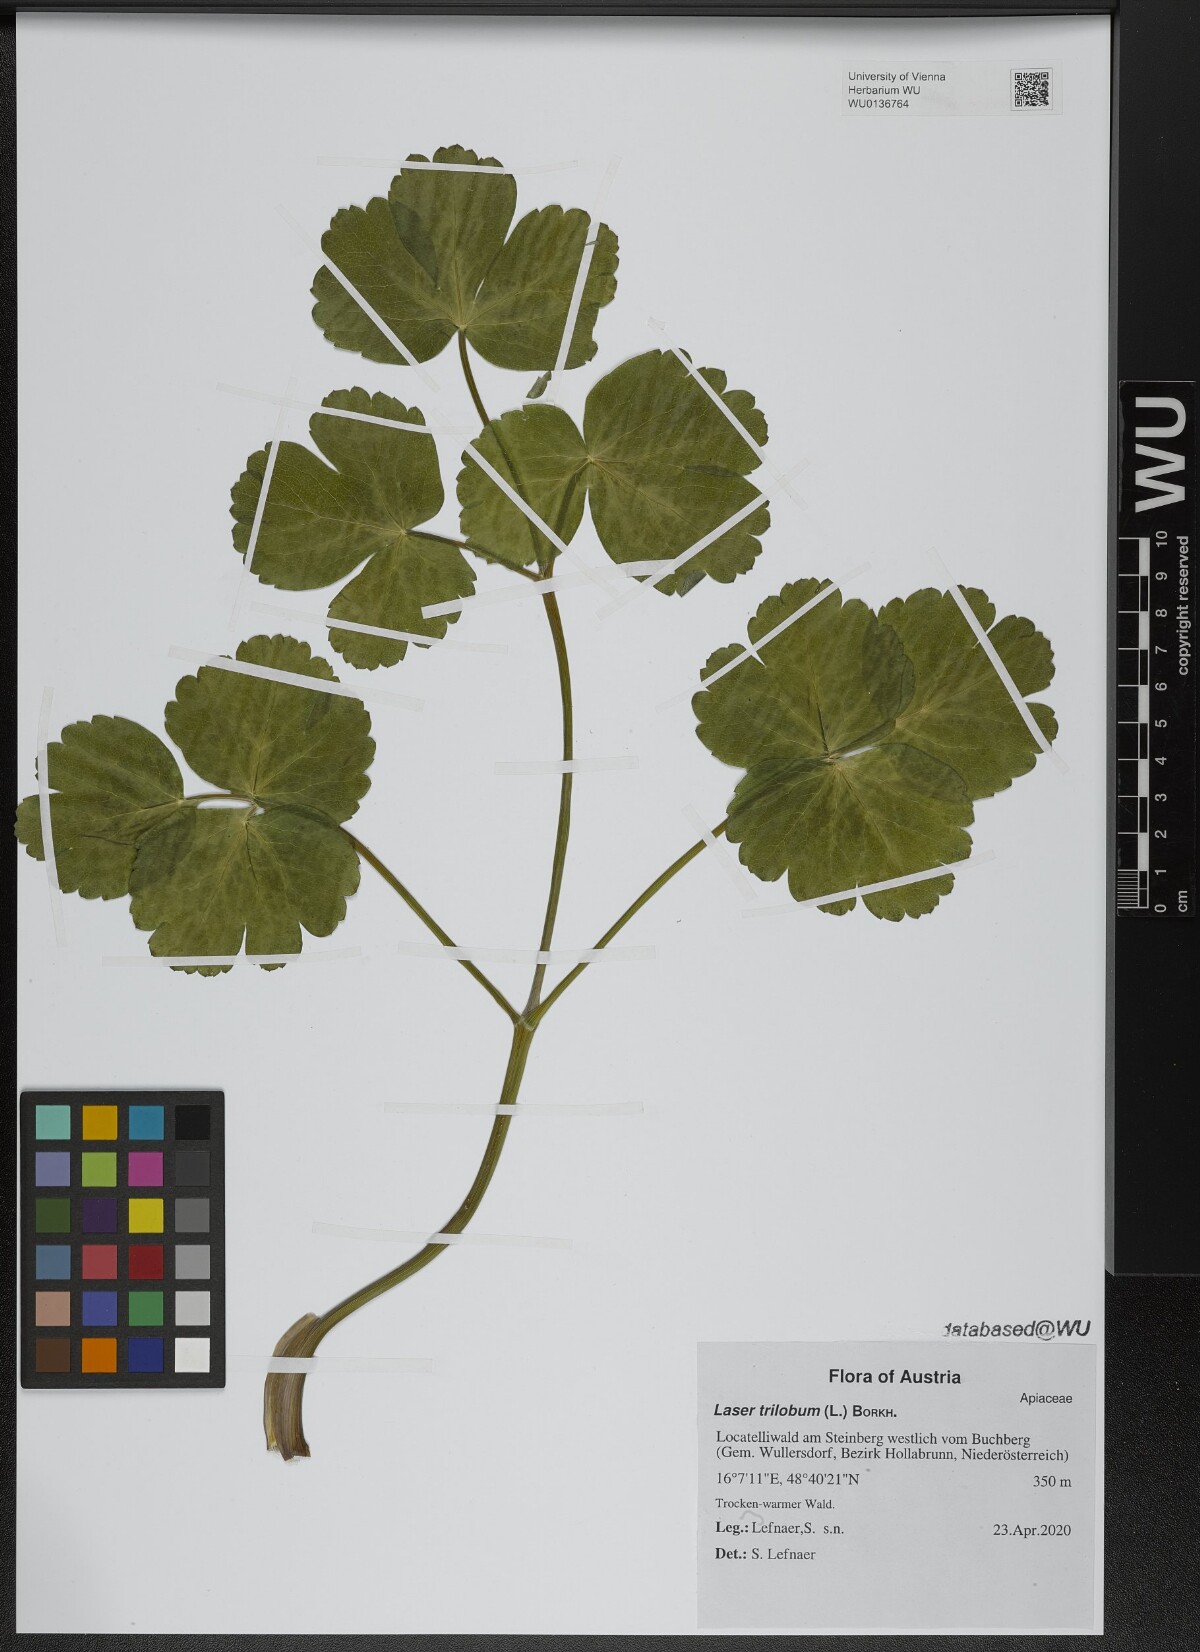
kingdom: Plantae
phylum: Tracheophyta
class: Magnoliopsida
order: Apiales
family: Apiaceae
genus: Laser
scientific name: Laser trilobum
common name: Laser
